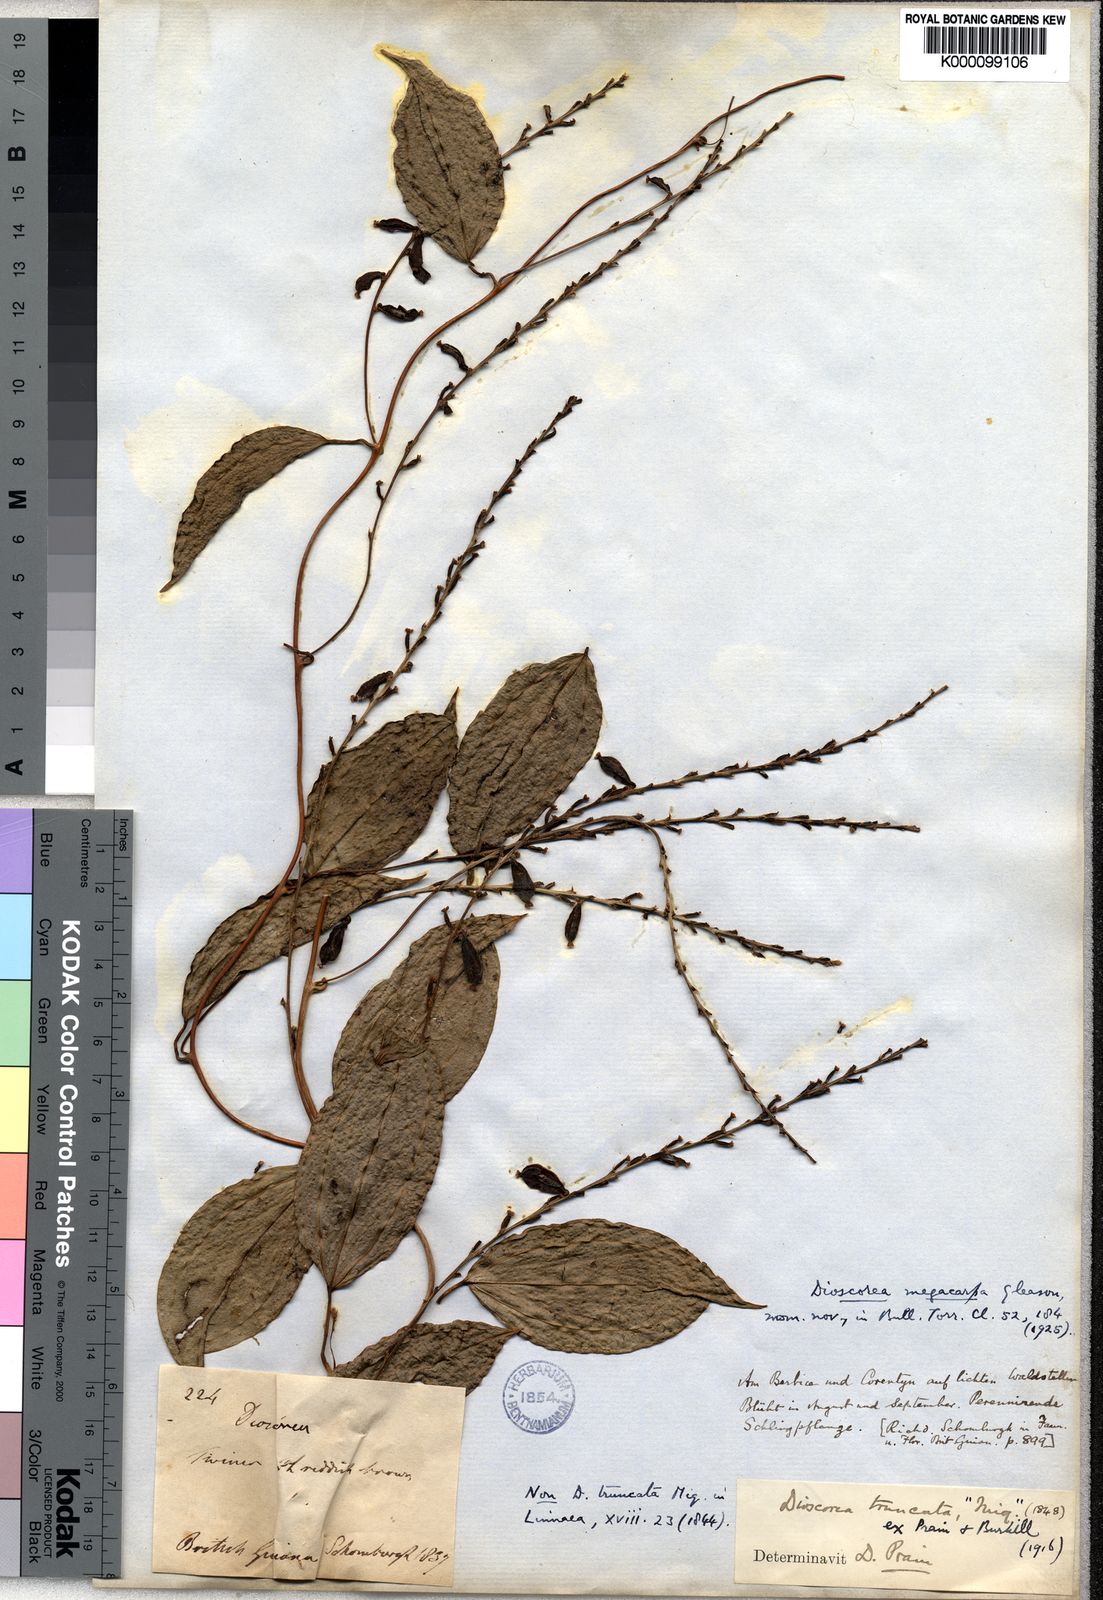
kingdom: Plantae
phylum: Tracheophyta
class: Liliopsida
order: Dioscoreales
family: Dioscoreaceae
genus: Dioscorea
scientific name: Dioscorea
